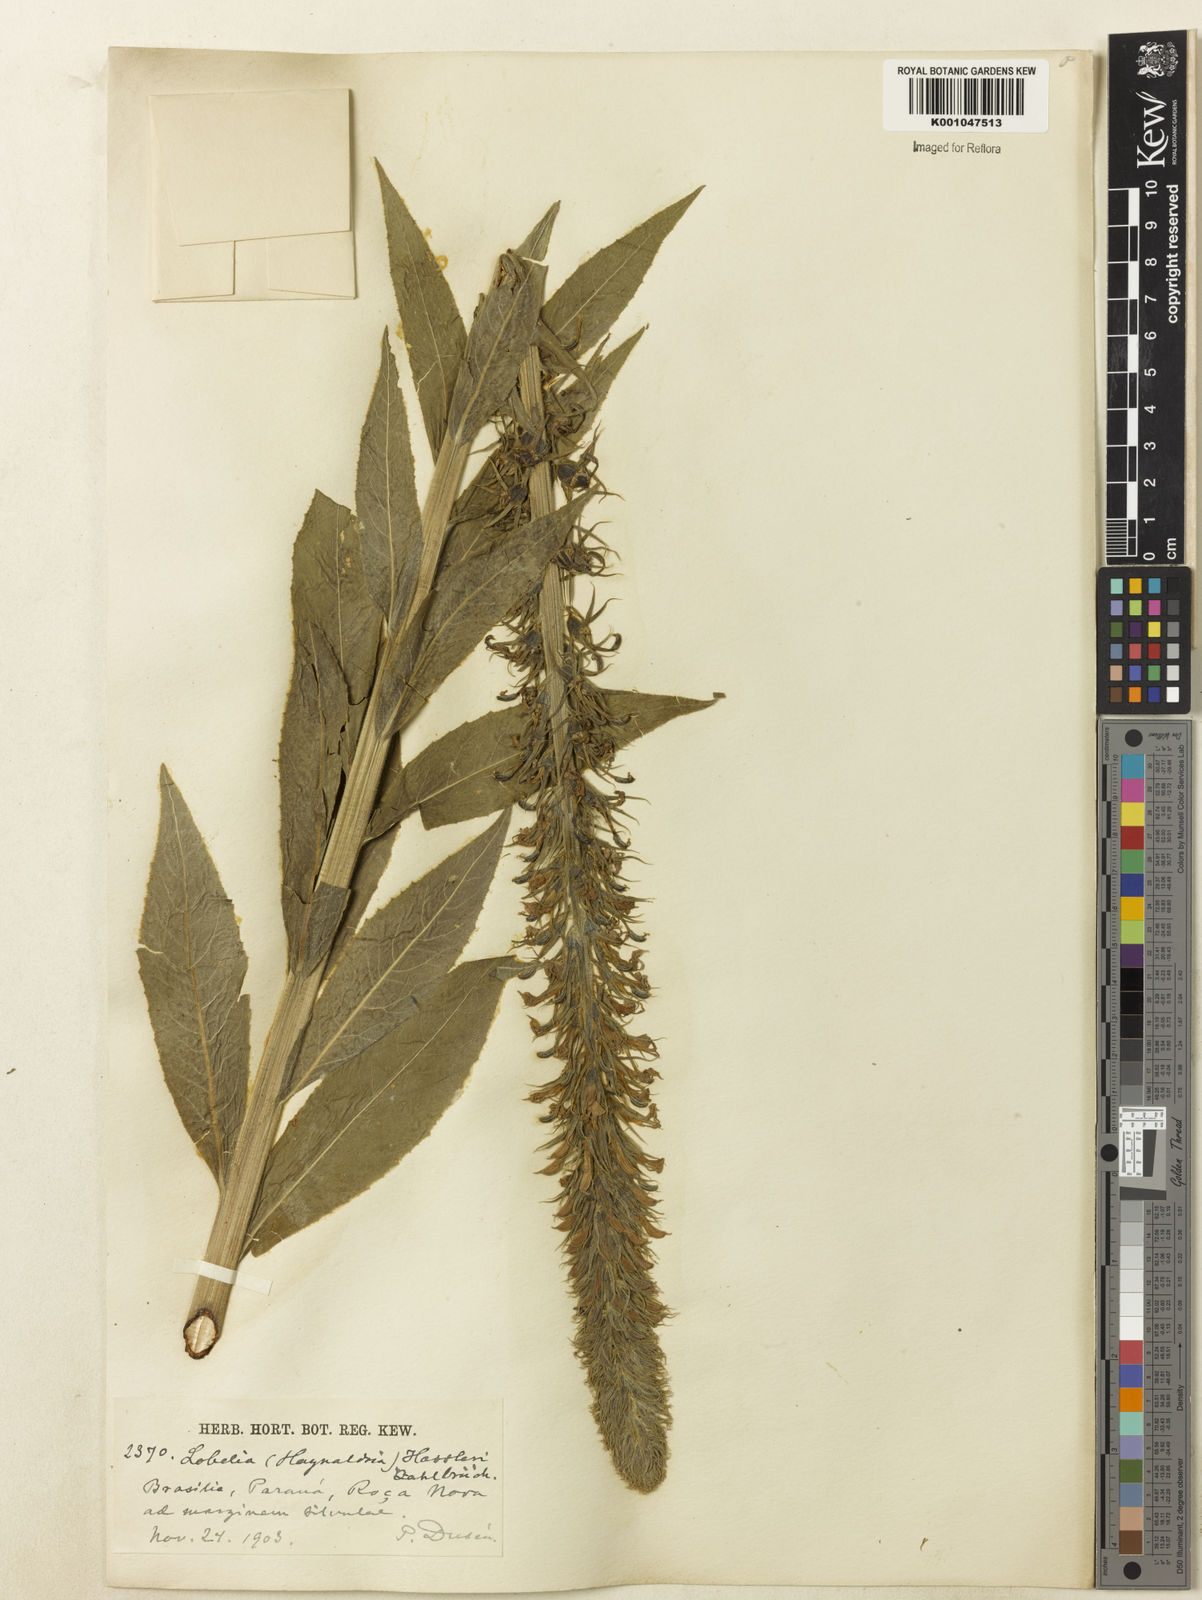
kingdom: Plantae
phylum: Tracheophyta
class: Magnoliopsida
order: Asterales
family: Campanulaceae
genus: Lobelia
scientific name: Lobelia hassleri
